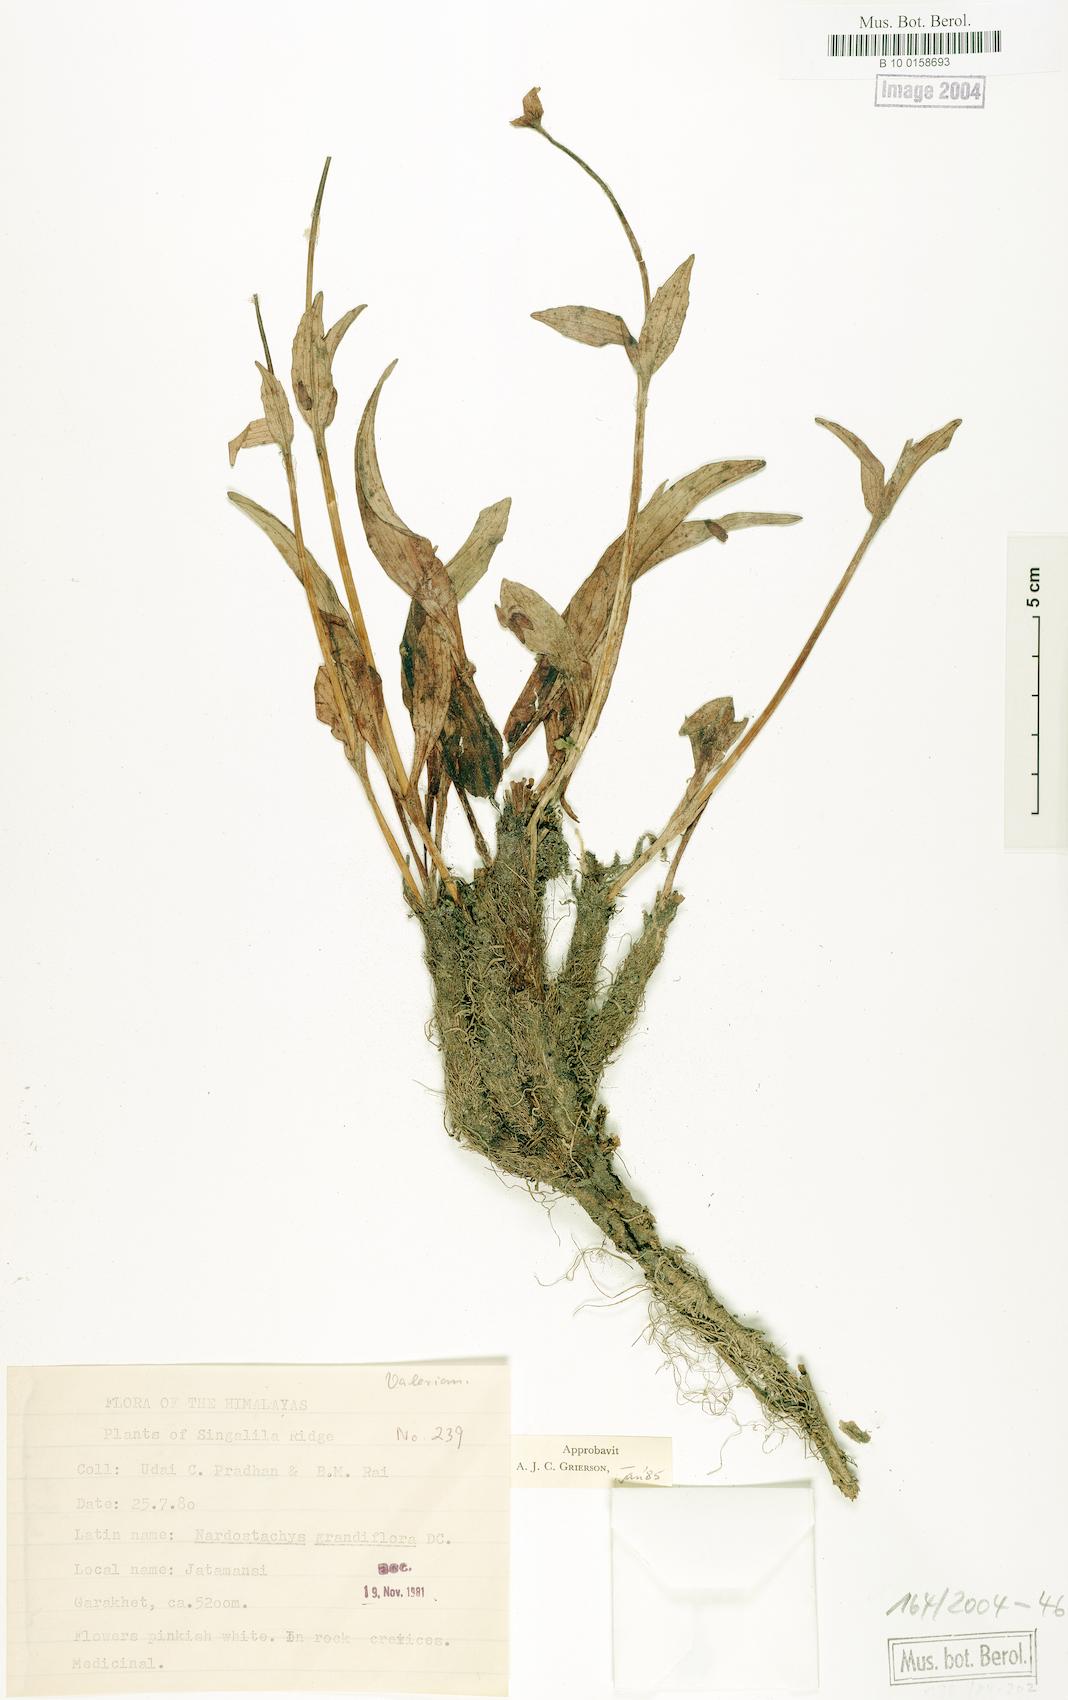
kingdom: Plantae
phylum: Tracheophyta
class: Magnoliopsida
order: Dipsacales
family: Caprifoliaceae
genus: Nardostachys
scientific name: Nardostachys jatamansi
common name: Indian nard
